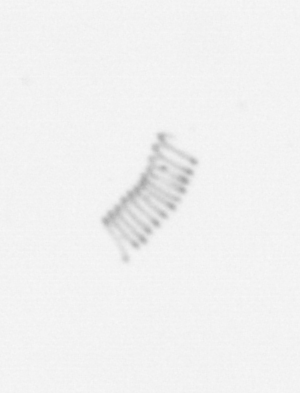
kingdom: Chromista
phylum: Ochrophyta
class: Bacillariophyceae
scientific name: Bacillariophyceae
